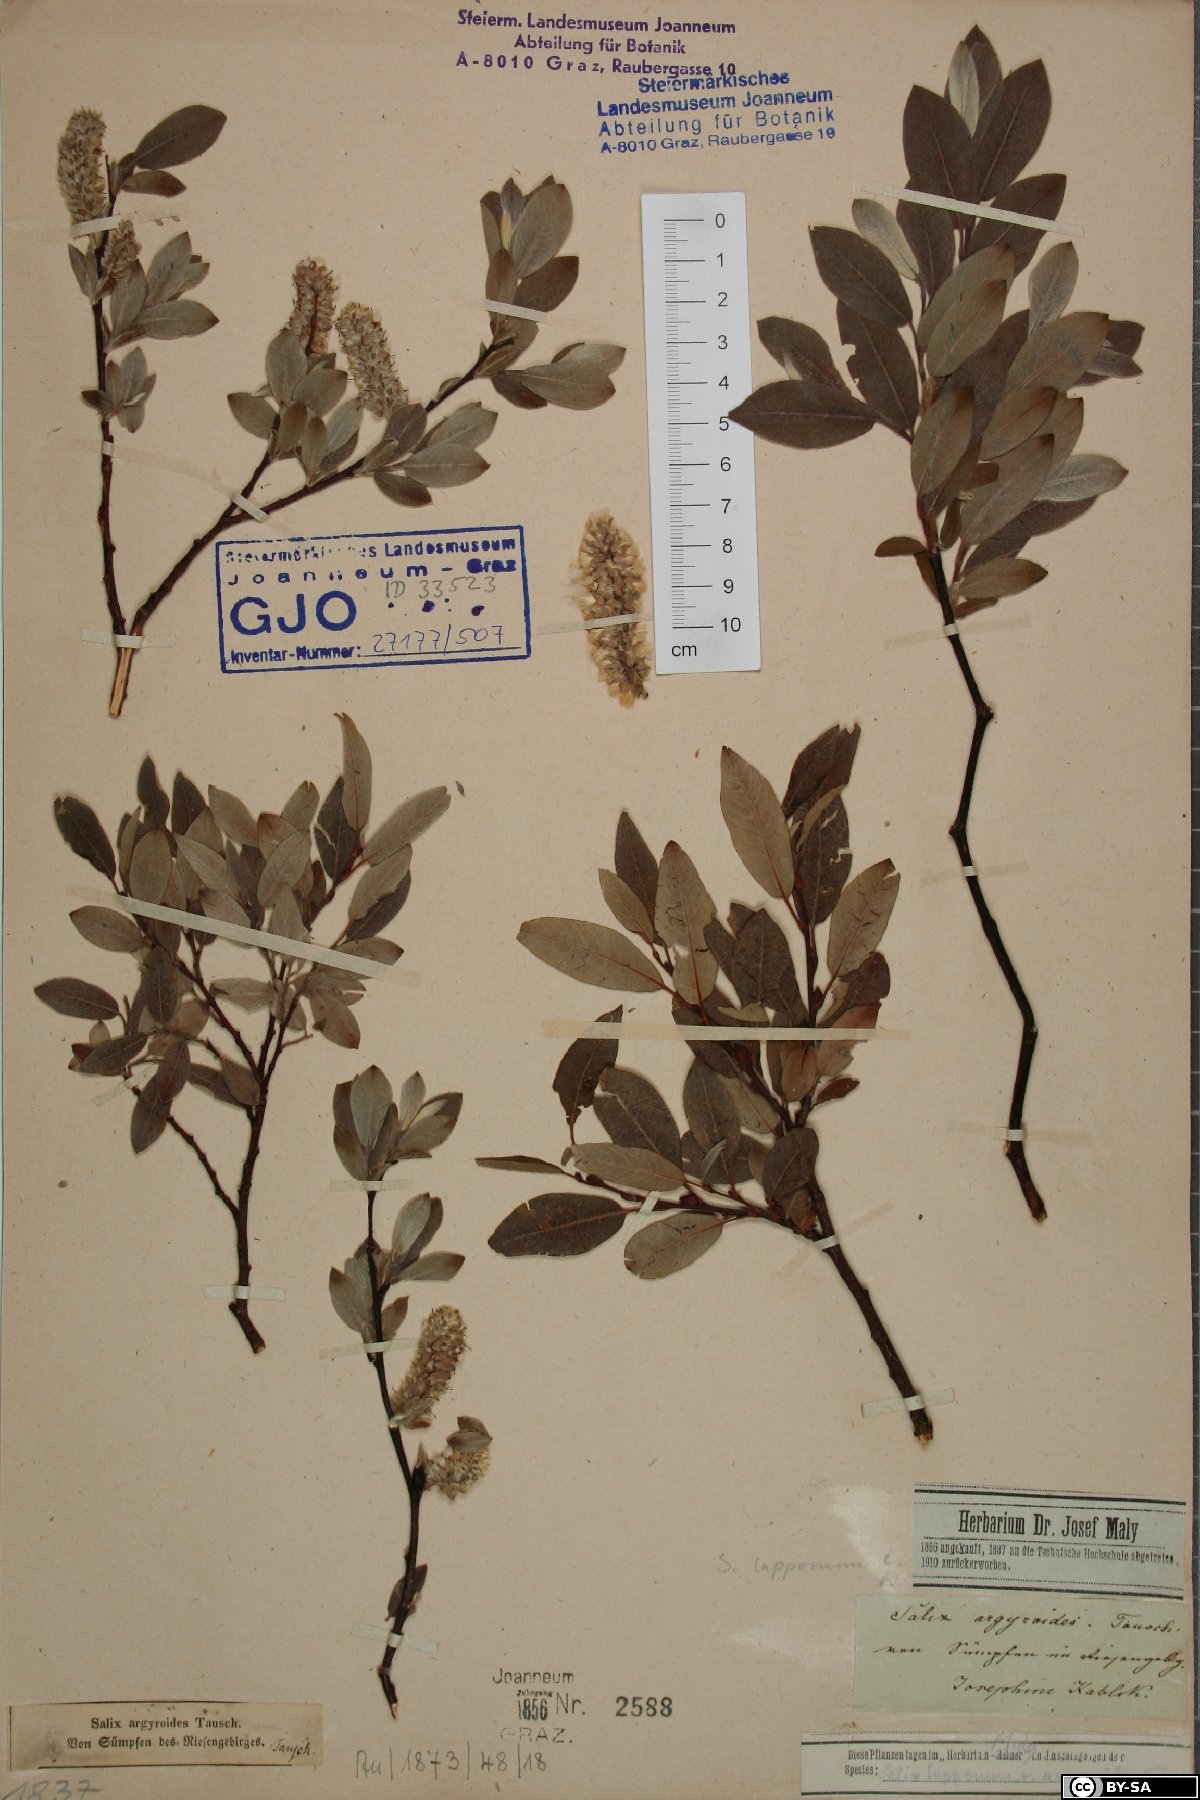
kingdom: Plantae
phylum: Tracheophyta
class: Magnoliopsida
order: Malpighiales
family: Salicaceae
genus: Salix
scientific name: Salix lapponum
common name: Downy willow
